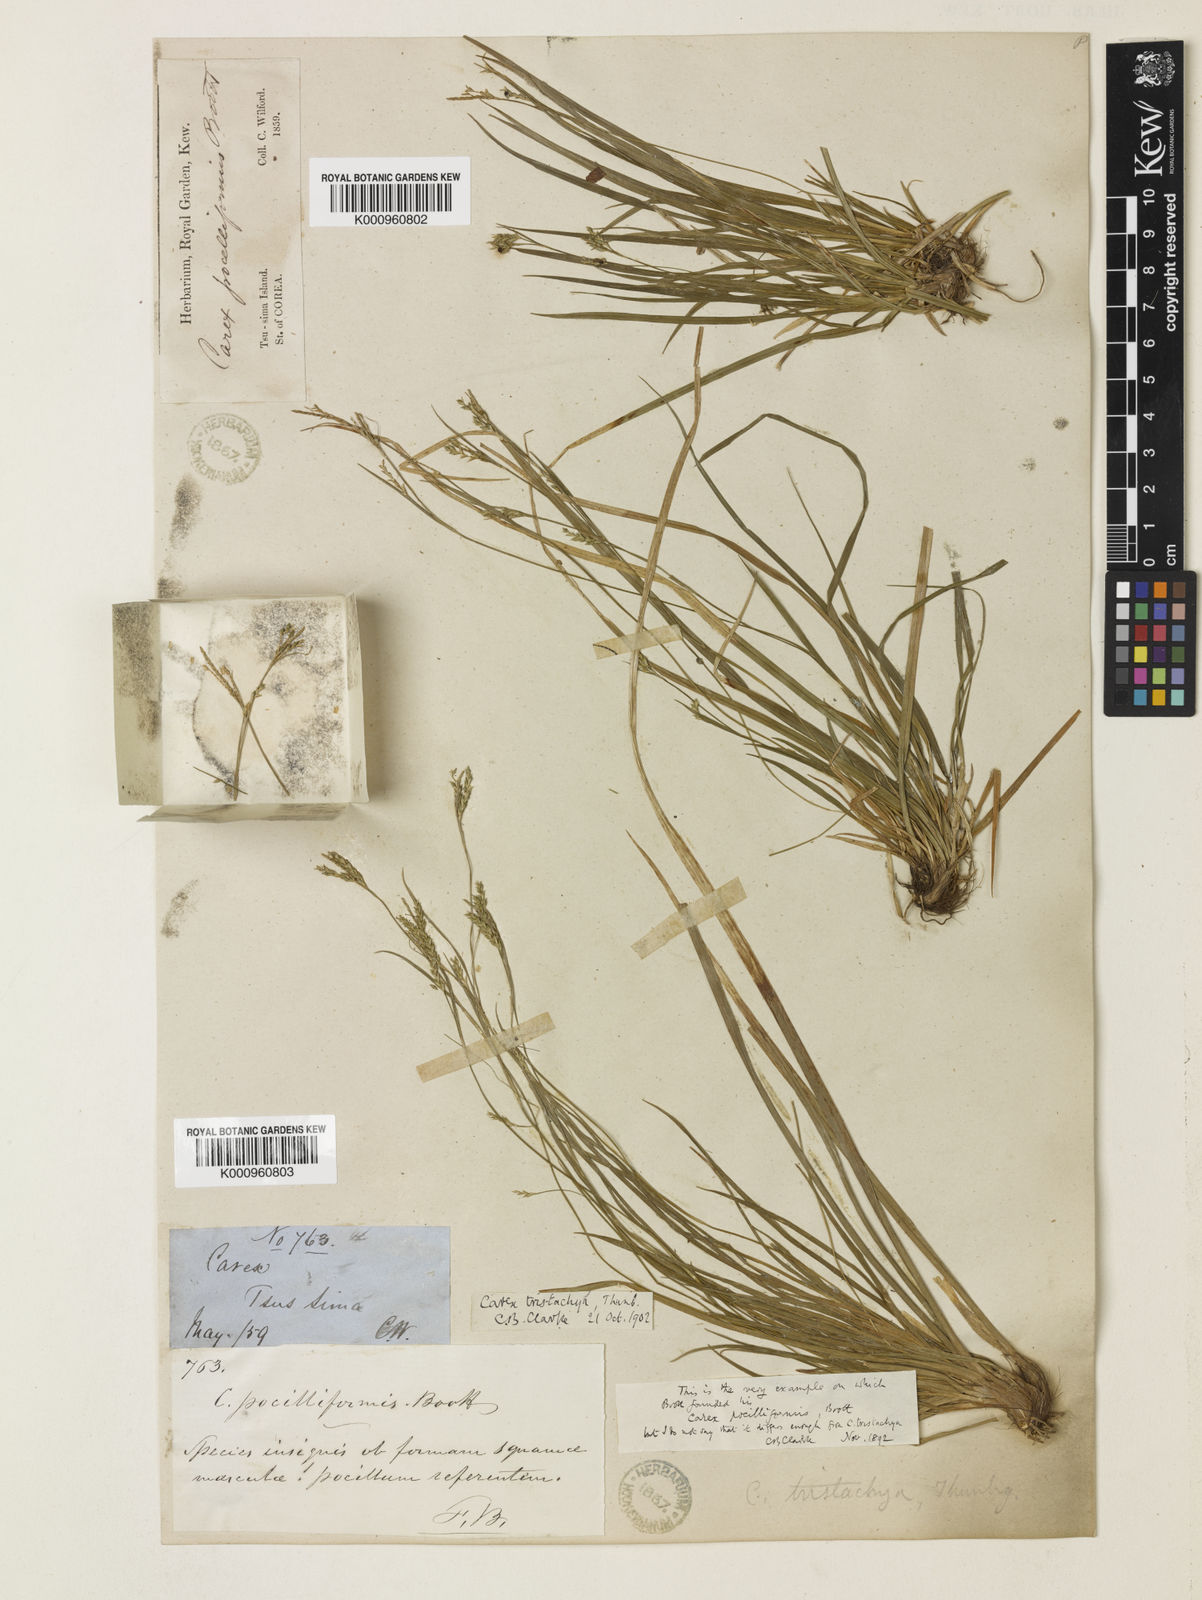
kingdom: Plantae
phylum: Tracheophyta
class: Liliopsida
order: Poales
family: Cyperaceae
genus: Carex
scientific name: Carex tristachya
